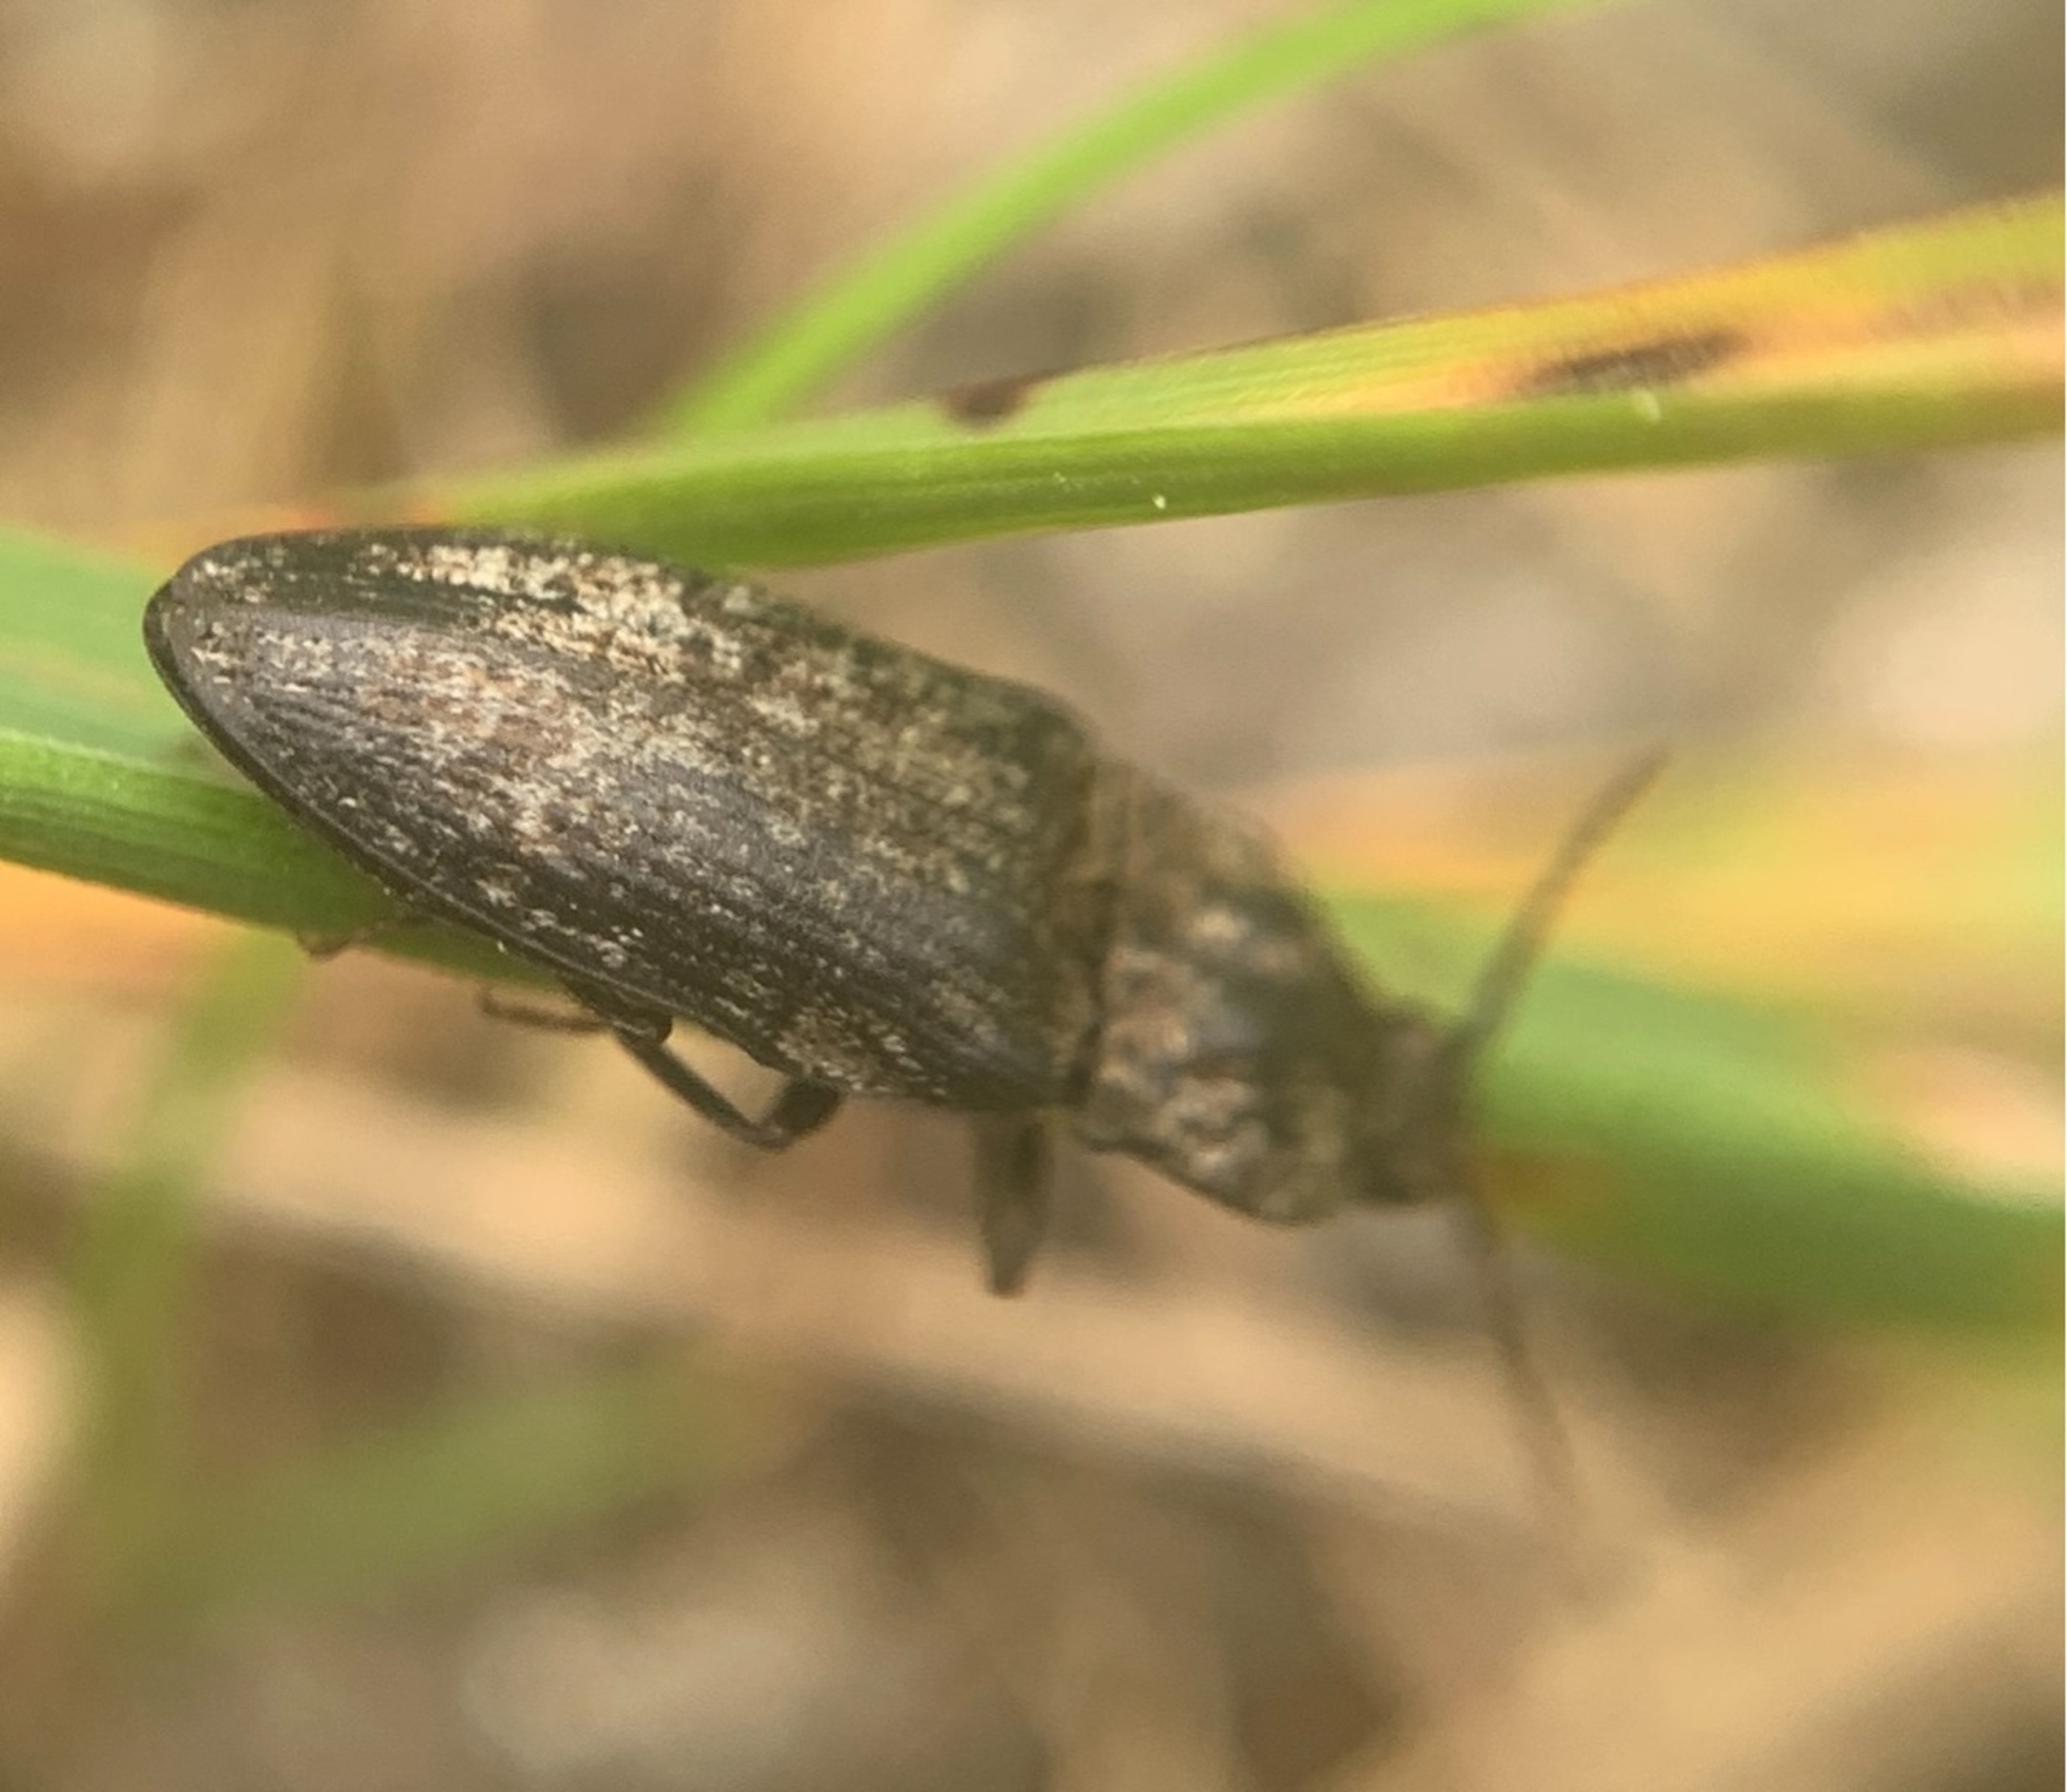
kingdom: Animalia
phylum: Arthropoda
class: Insecta
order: Coleoptera
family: Elateridae
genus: Agrypnus
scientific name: Agrypnus murinus
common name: Musegrå smælder
